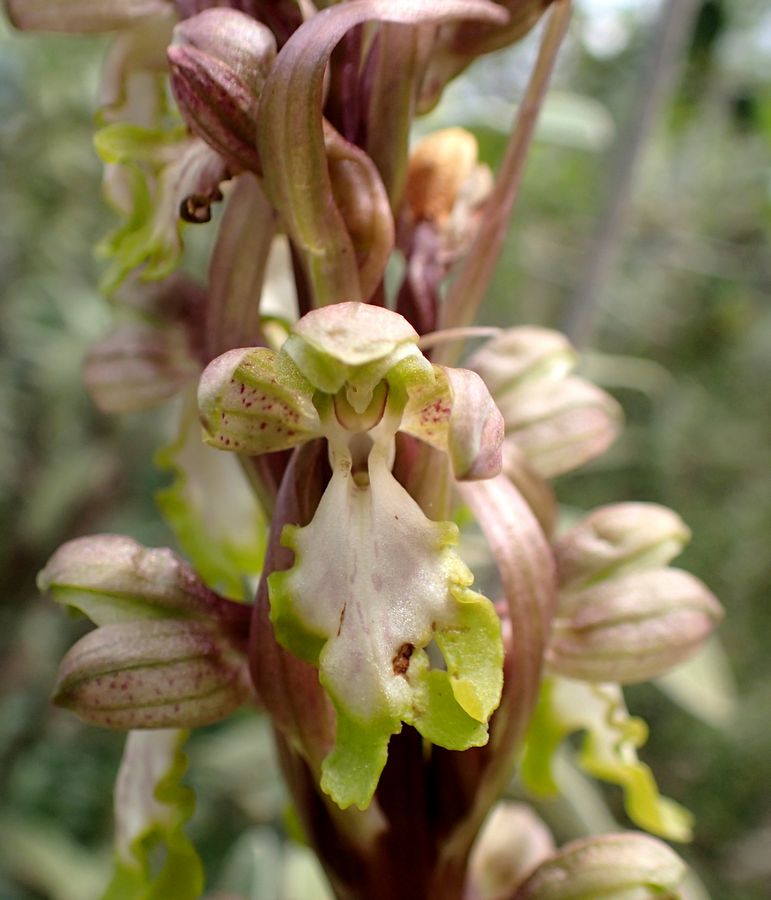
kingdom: Plantae
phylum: Tracheophyta
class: Liliopsida
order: Asparagales
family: Orchidaceae
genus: Himantoglossum
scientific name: Himantoglossum robertianum
